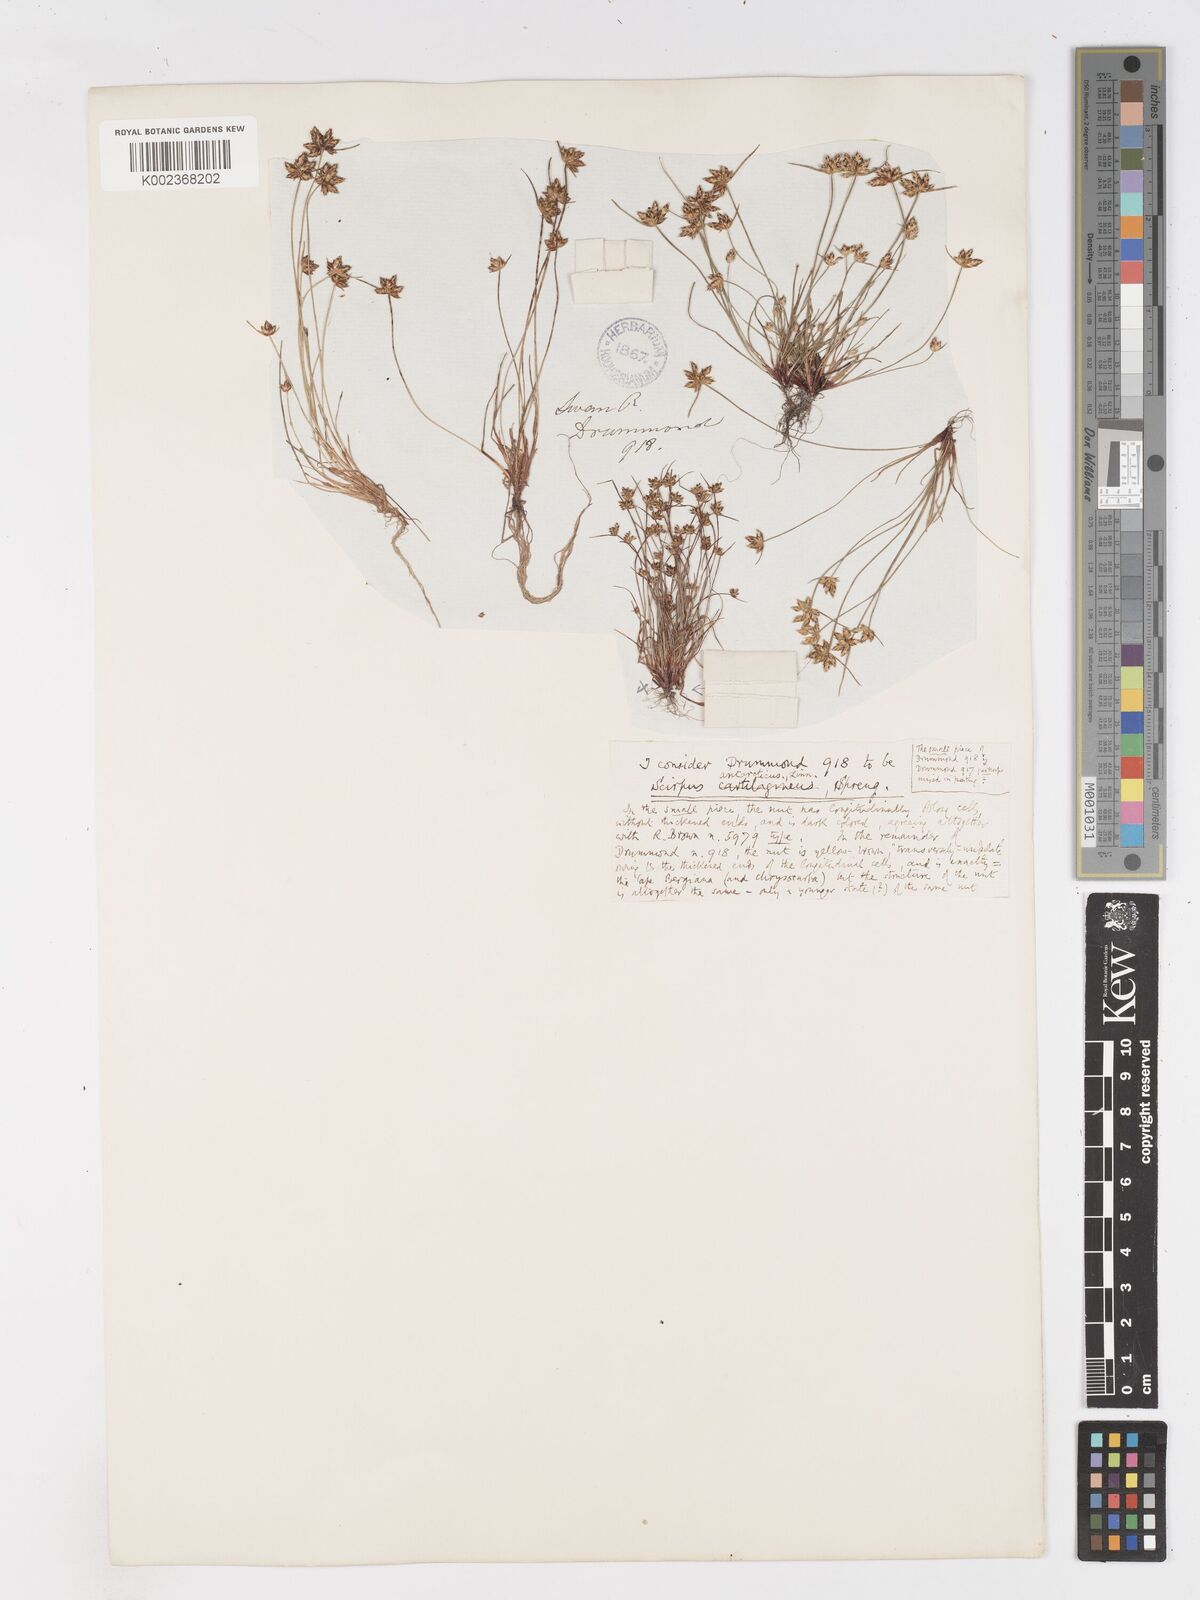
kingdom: Plantae
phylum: Tracheophyta
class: Liliopsida
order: Poales
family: Cyperaceae
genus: Isolepis
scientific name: Isolepis antarctica
